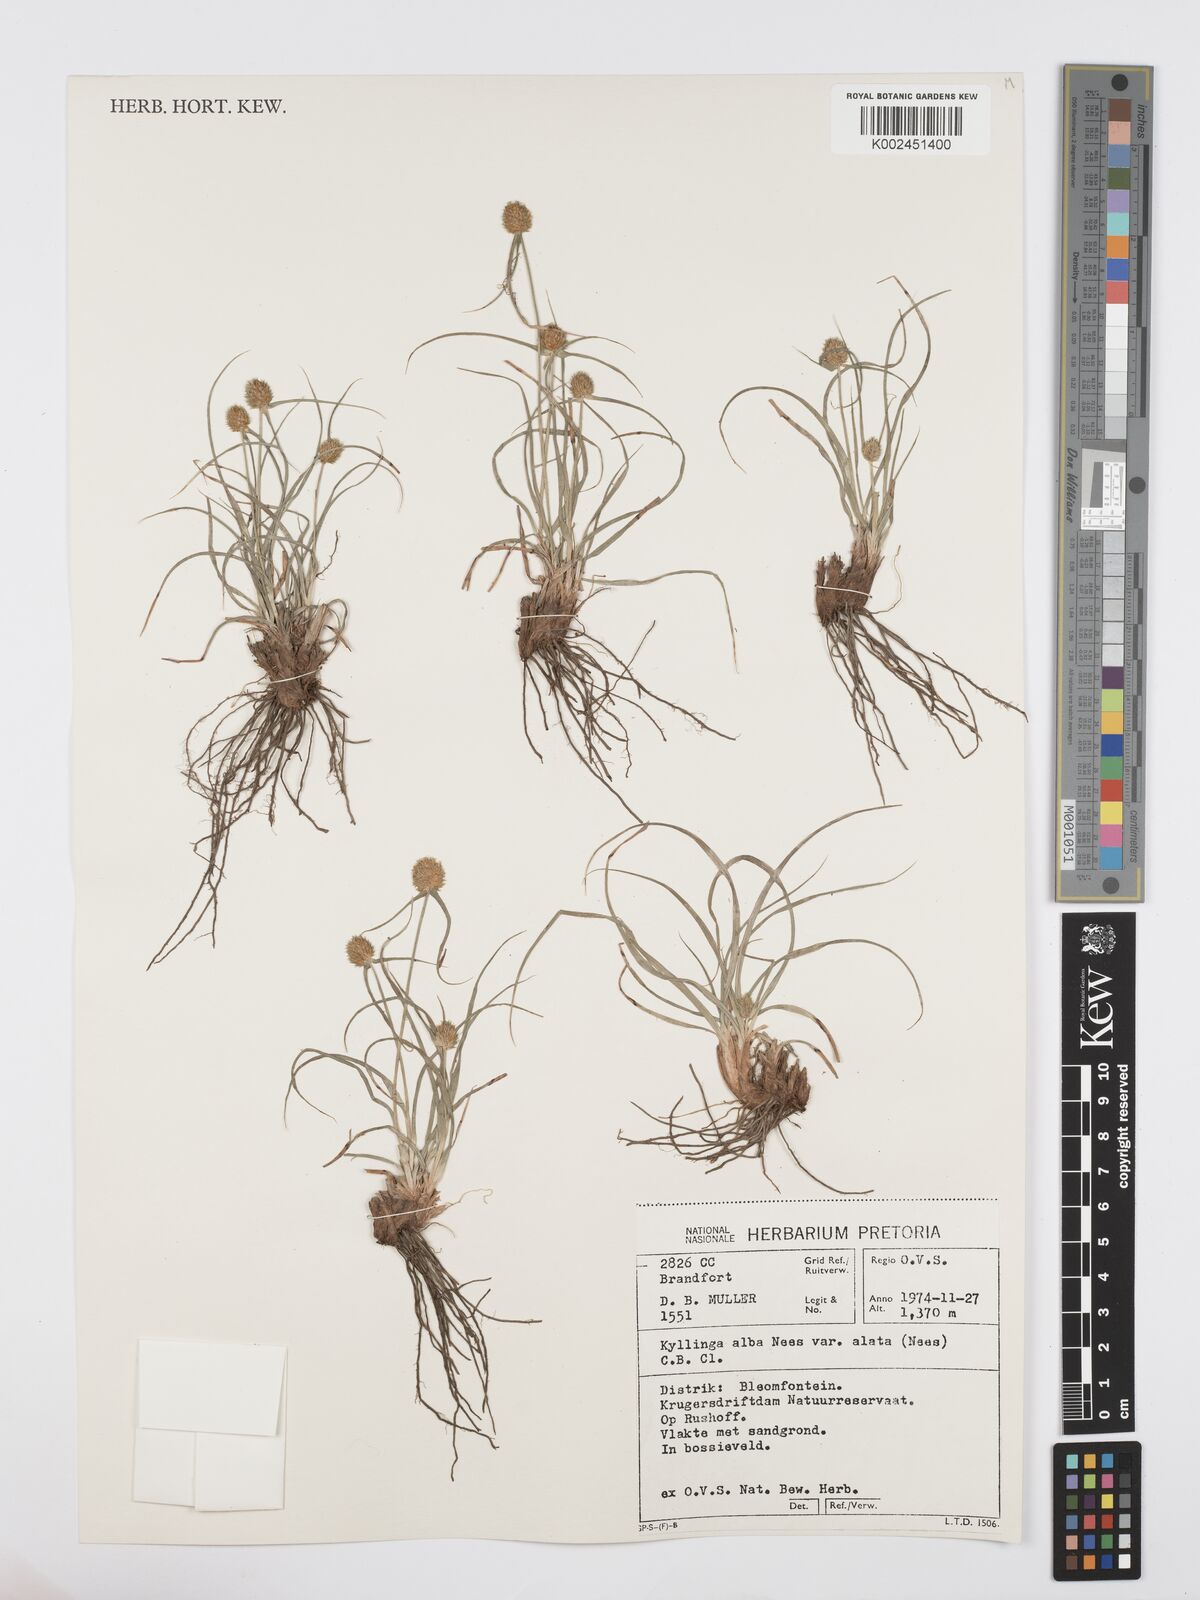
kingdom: Plantae
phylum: Tracheophyta
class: Liliopsida
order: Poales
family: Cyperaceae
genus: Cyperus
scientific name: Cyperus alatus
